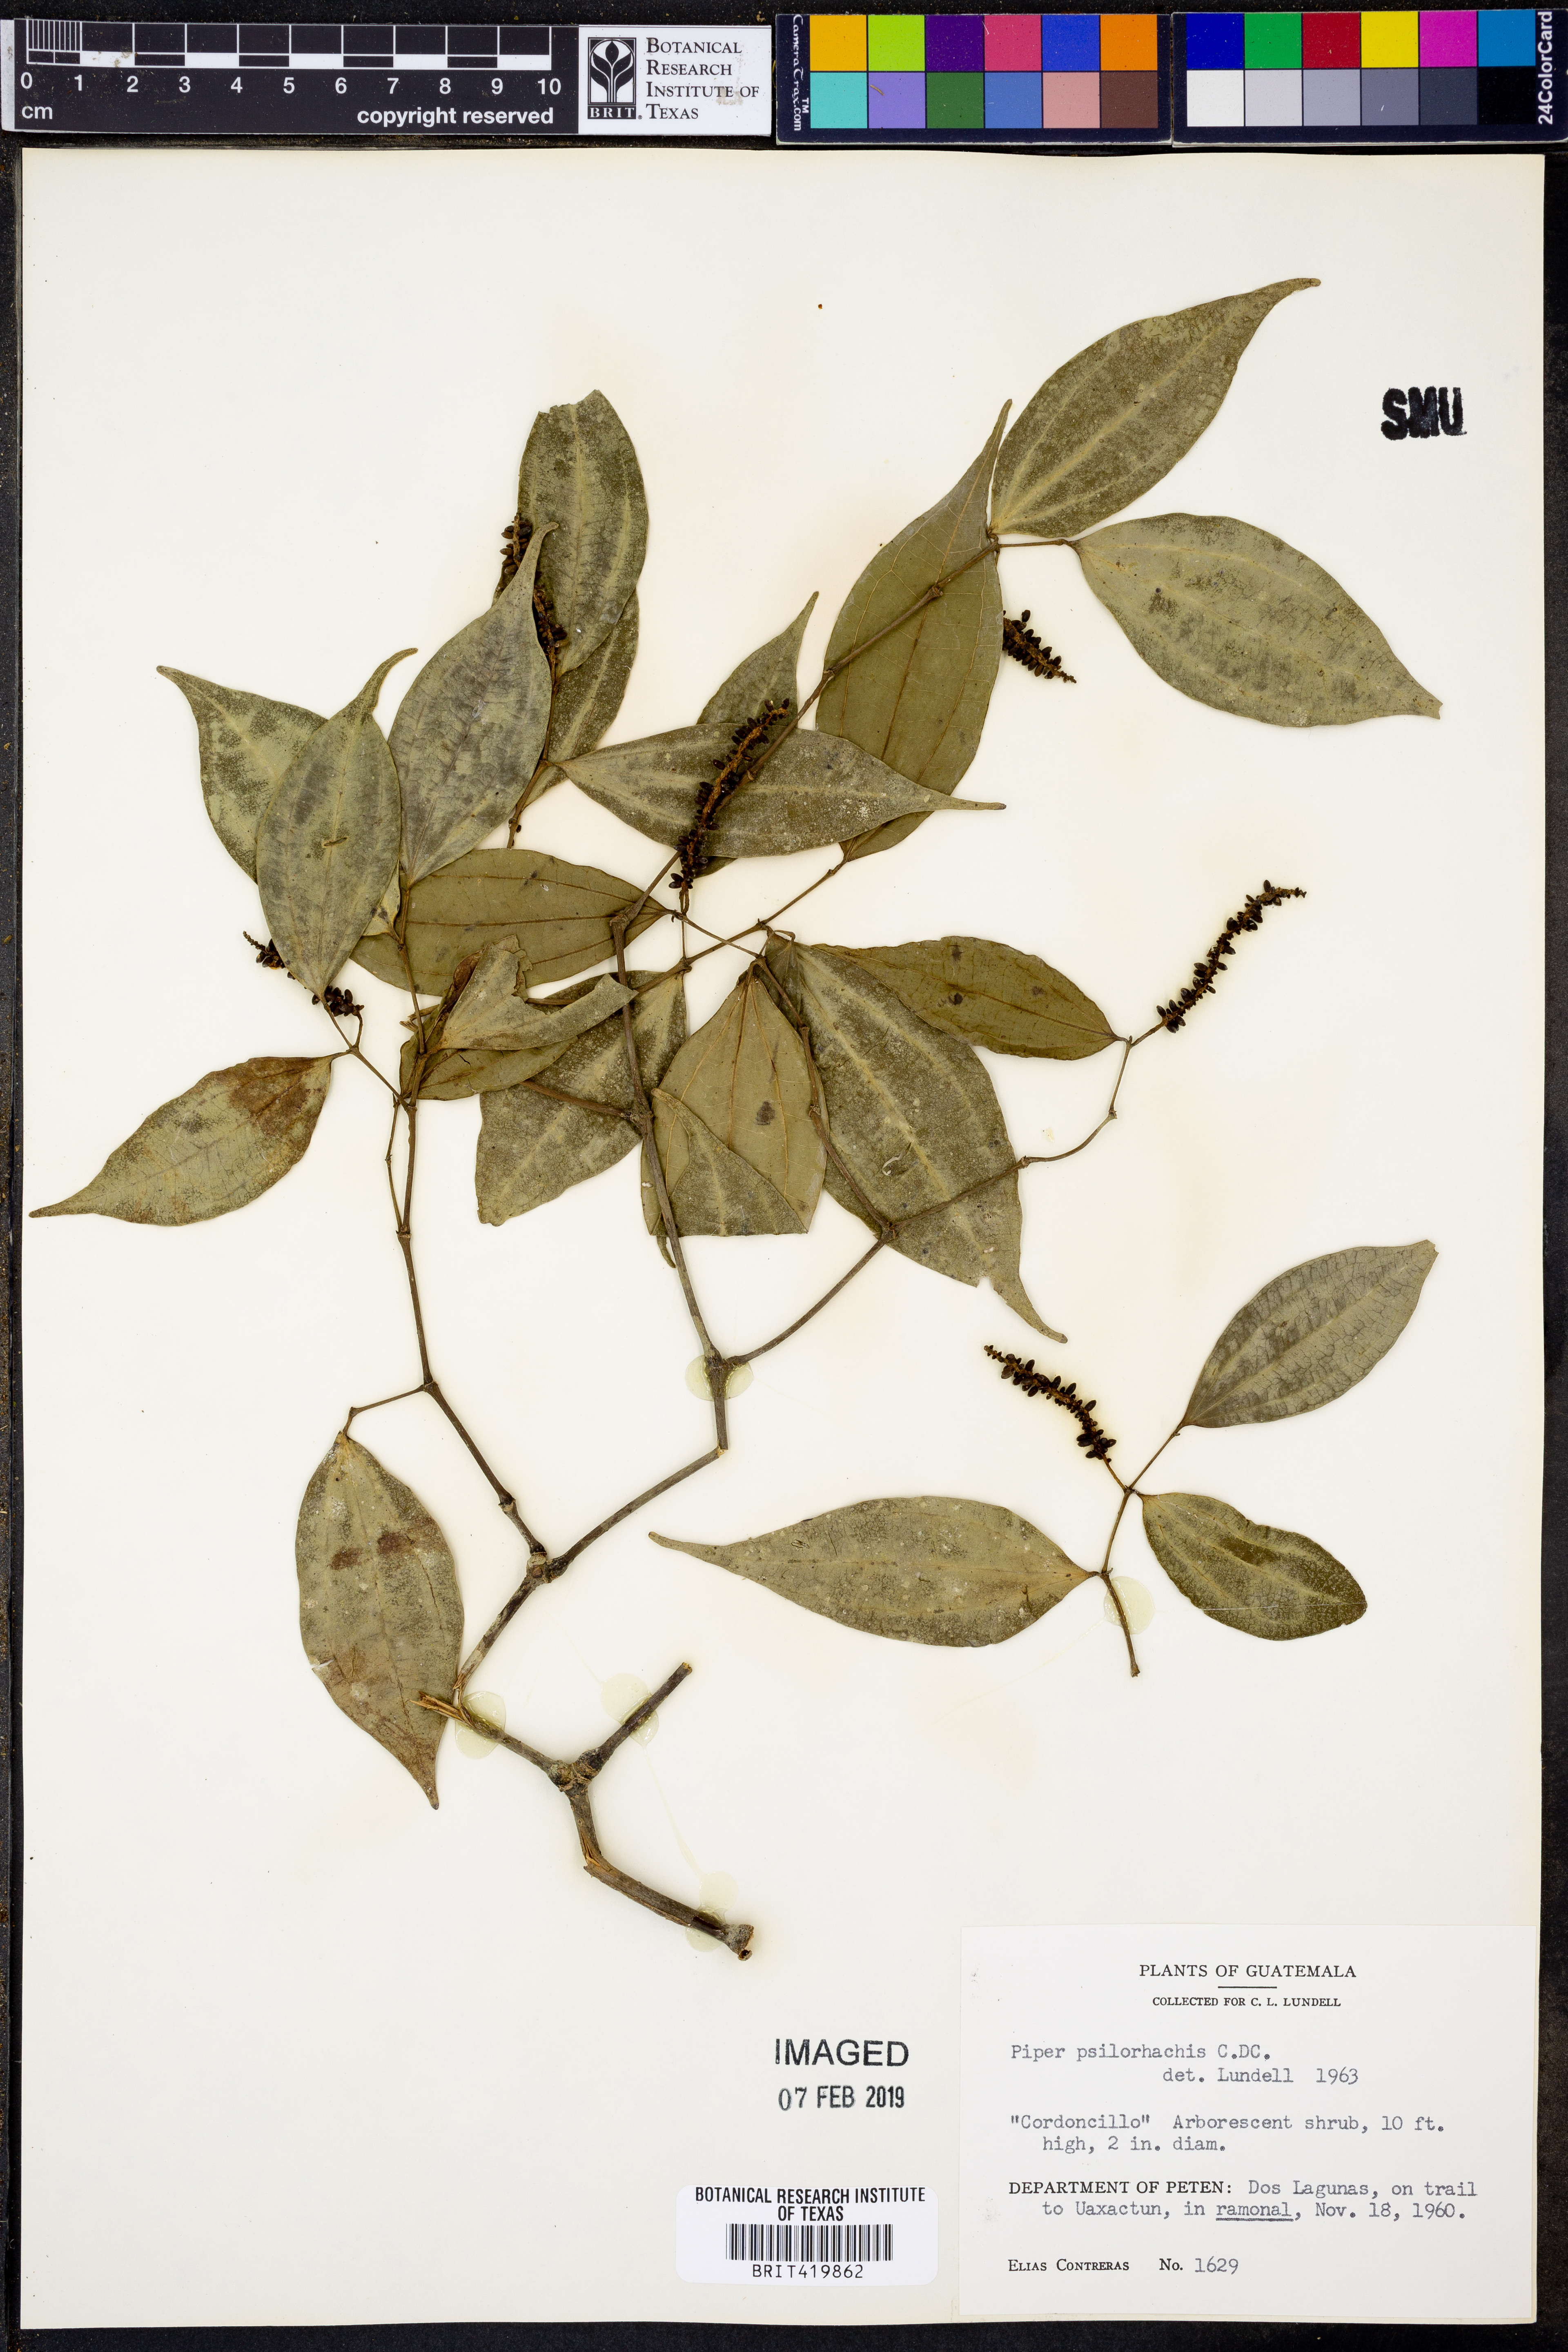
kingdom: Plantae
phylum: Tracheophyta
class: Magnoliopsida
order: Piperales
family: Piperaceae
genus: Piper
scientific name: Piper psilorhachis
